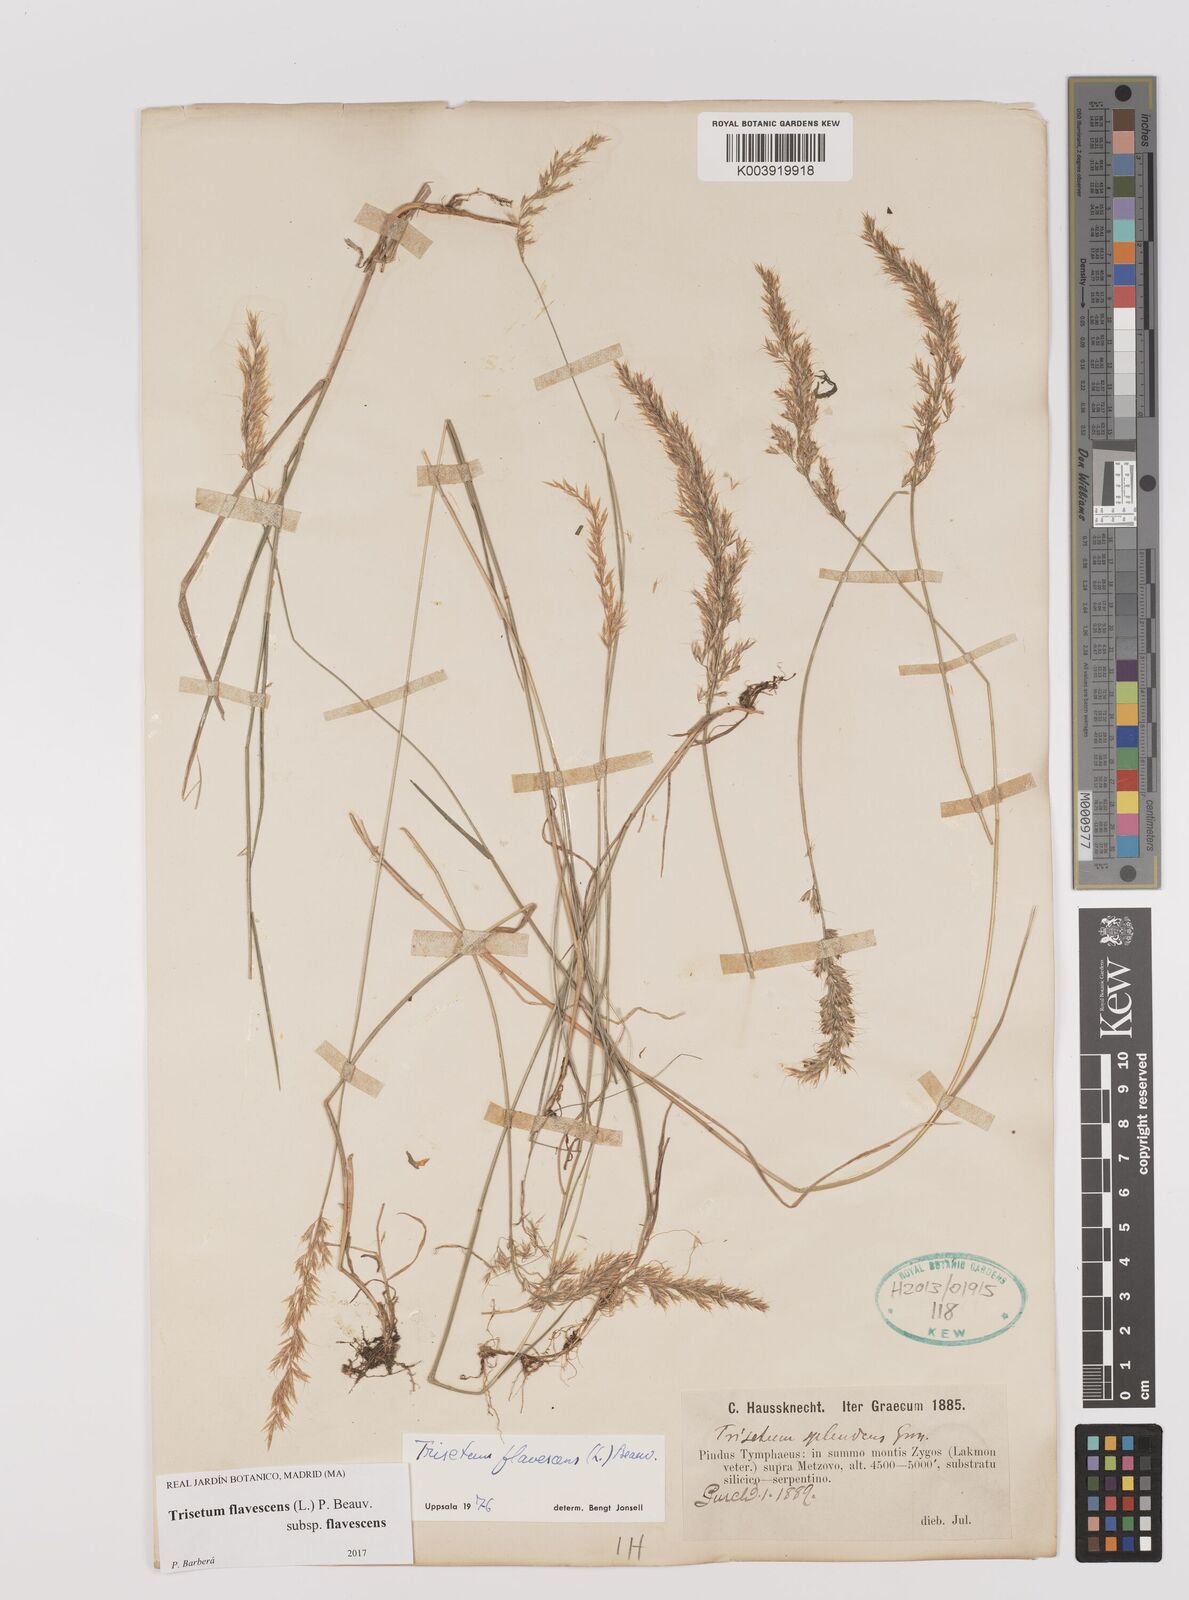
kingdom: Plantae
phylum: Tracheophyta
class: Liliopsida
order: Poales
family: Poaceae
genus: Trisetum
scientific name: Trisetum flavescens
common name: Yellow oat-grass
